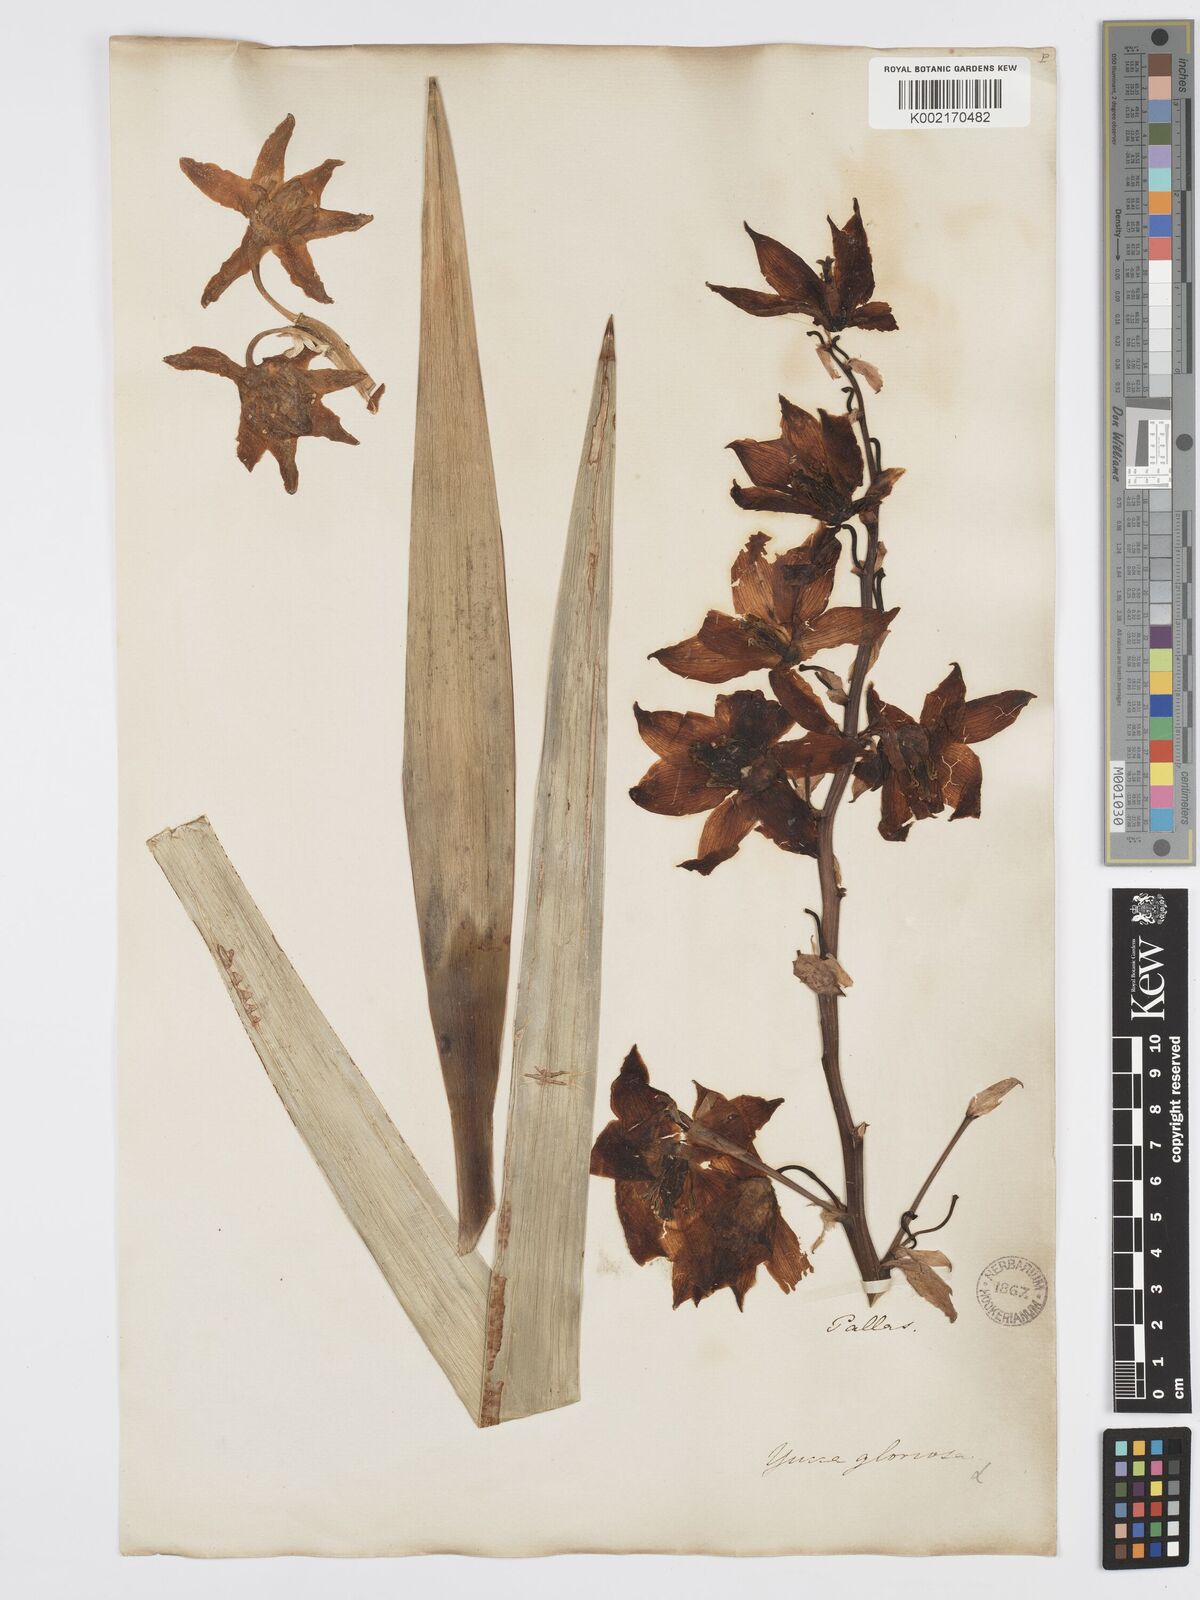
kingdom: Plantae
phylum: Tracheophyta
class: Liliopsida
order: Asparagales
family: Asparagaceae
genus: Yucca
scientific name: Yucca gloriosa
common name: Spanish-dagger
